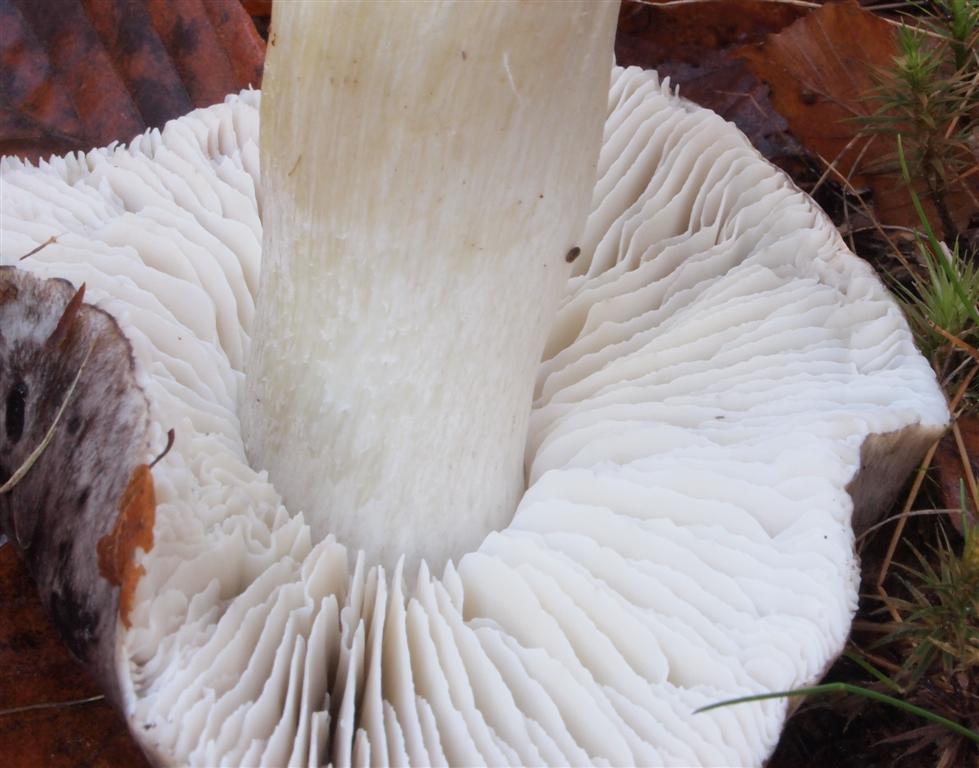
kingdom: Fungi
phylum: Basidiomycota
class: Agaricomycetes
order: Agaricales
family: Tricholomataceae
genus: Tricholoma
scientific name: Tricholoma portentosum
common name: grå ridderhat
